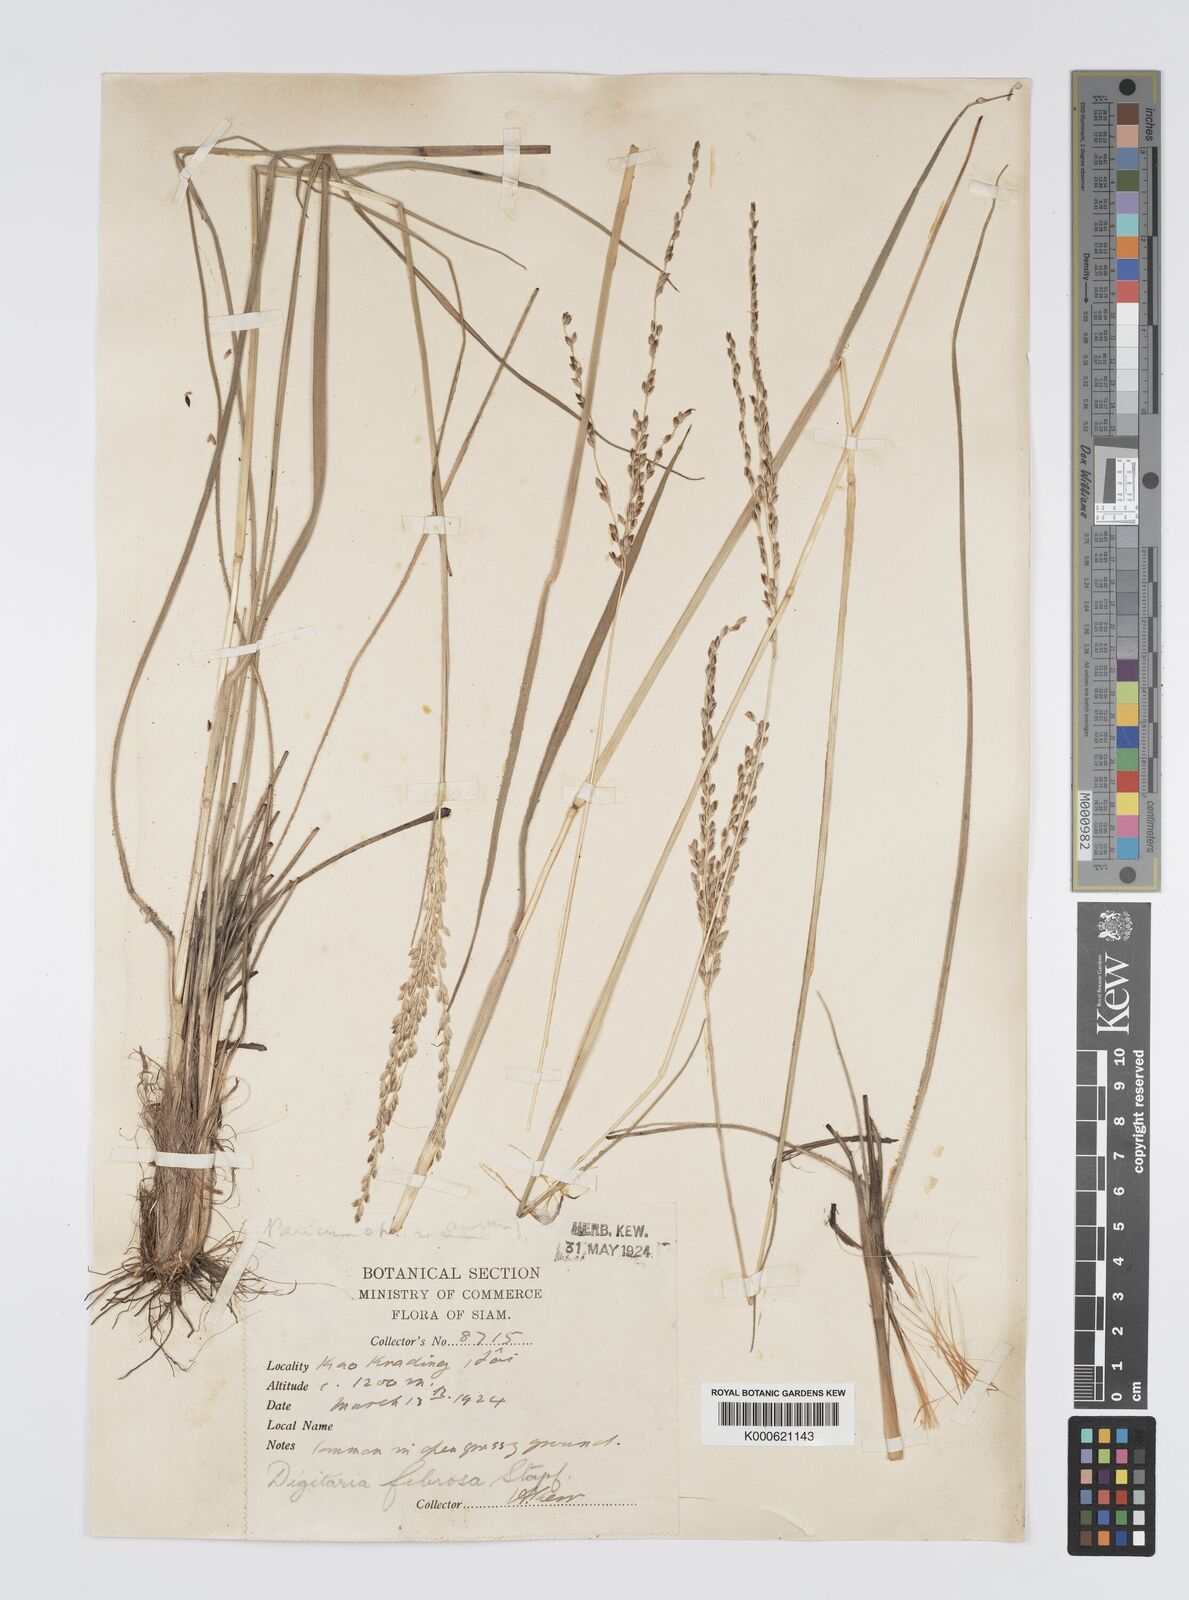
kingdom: Plantae
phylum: Tracheophyta
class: Liliopsida
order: Poales
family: Poaceae
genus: Digitaria
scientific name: Digitaria setifolia
